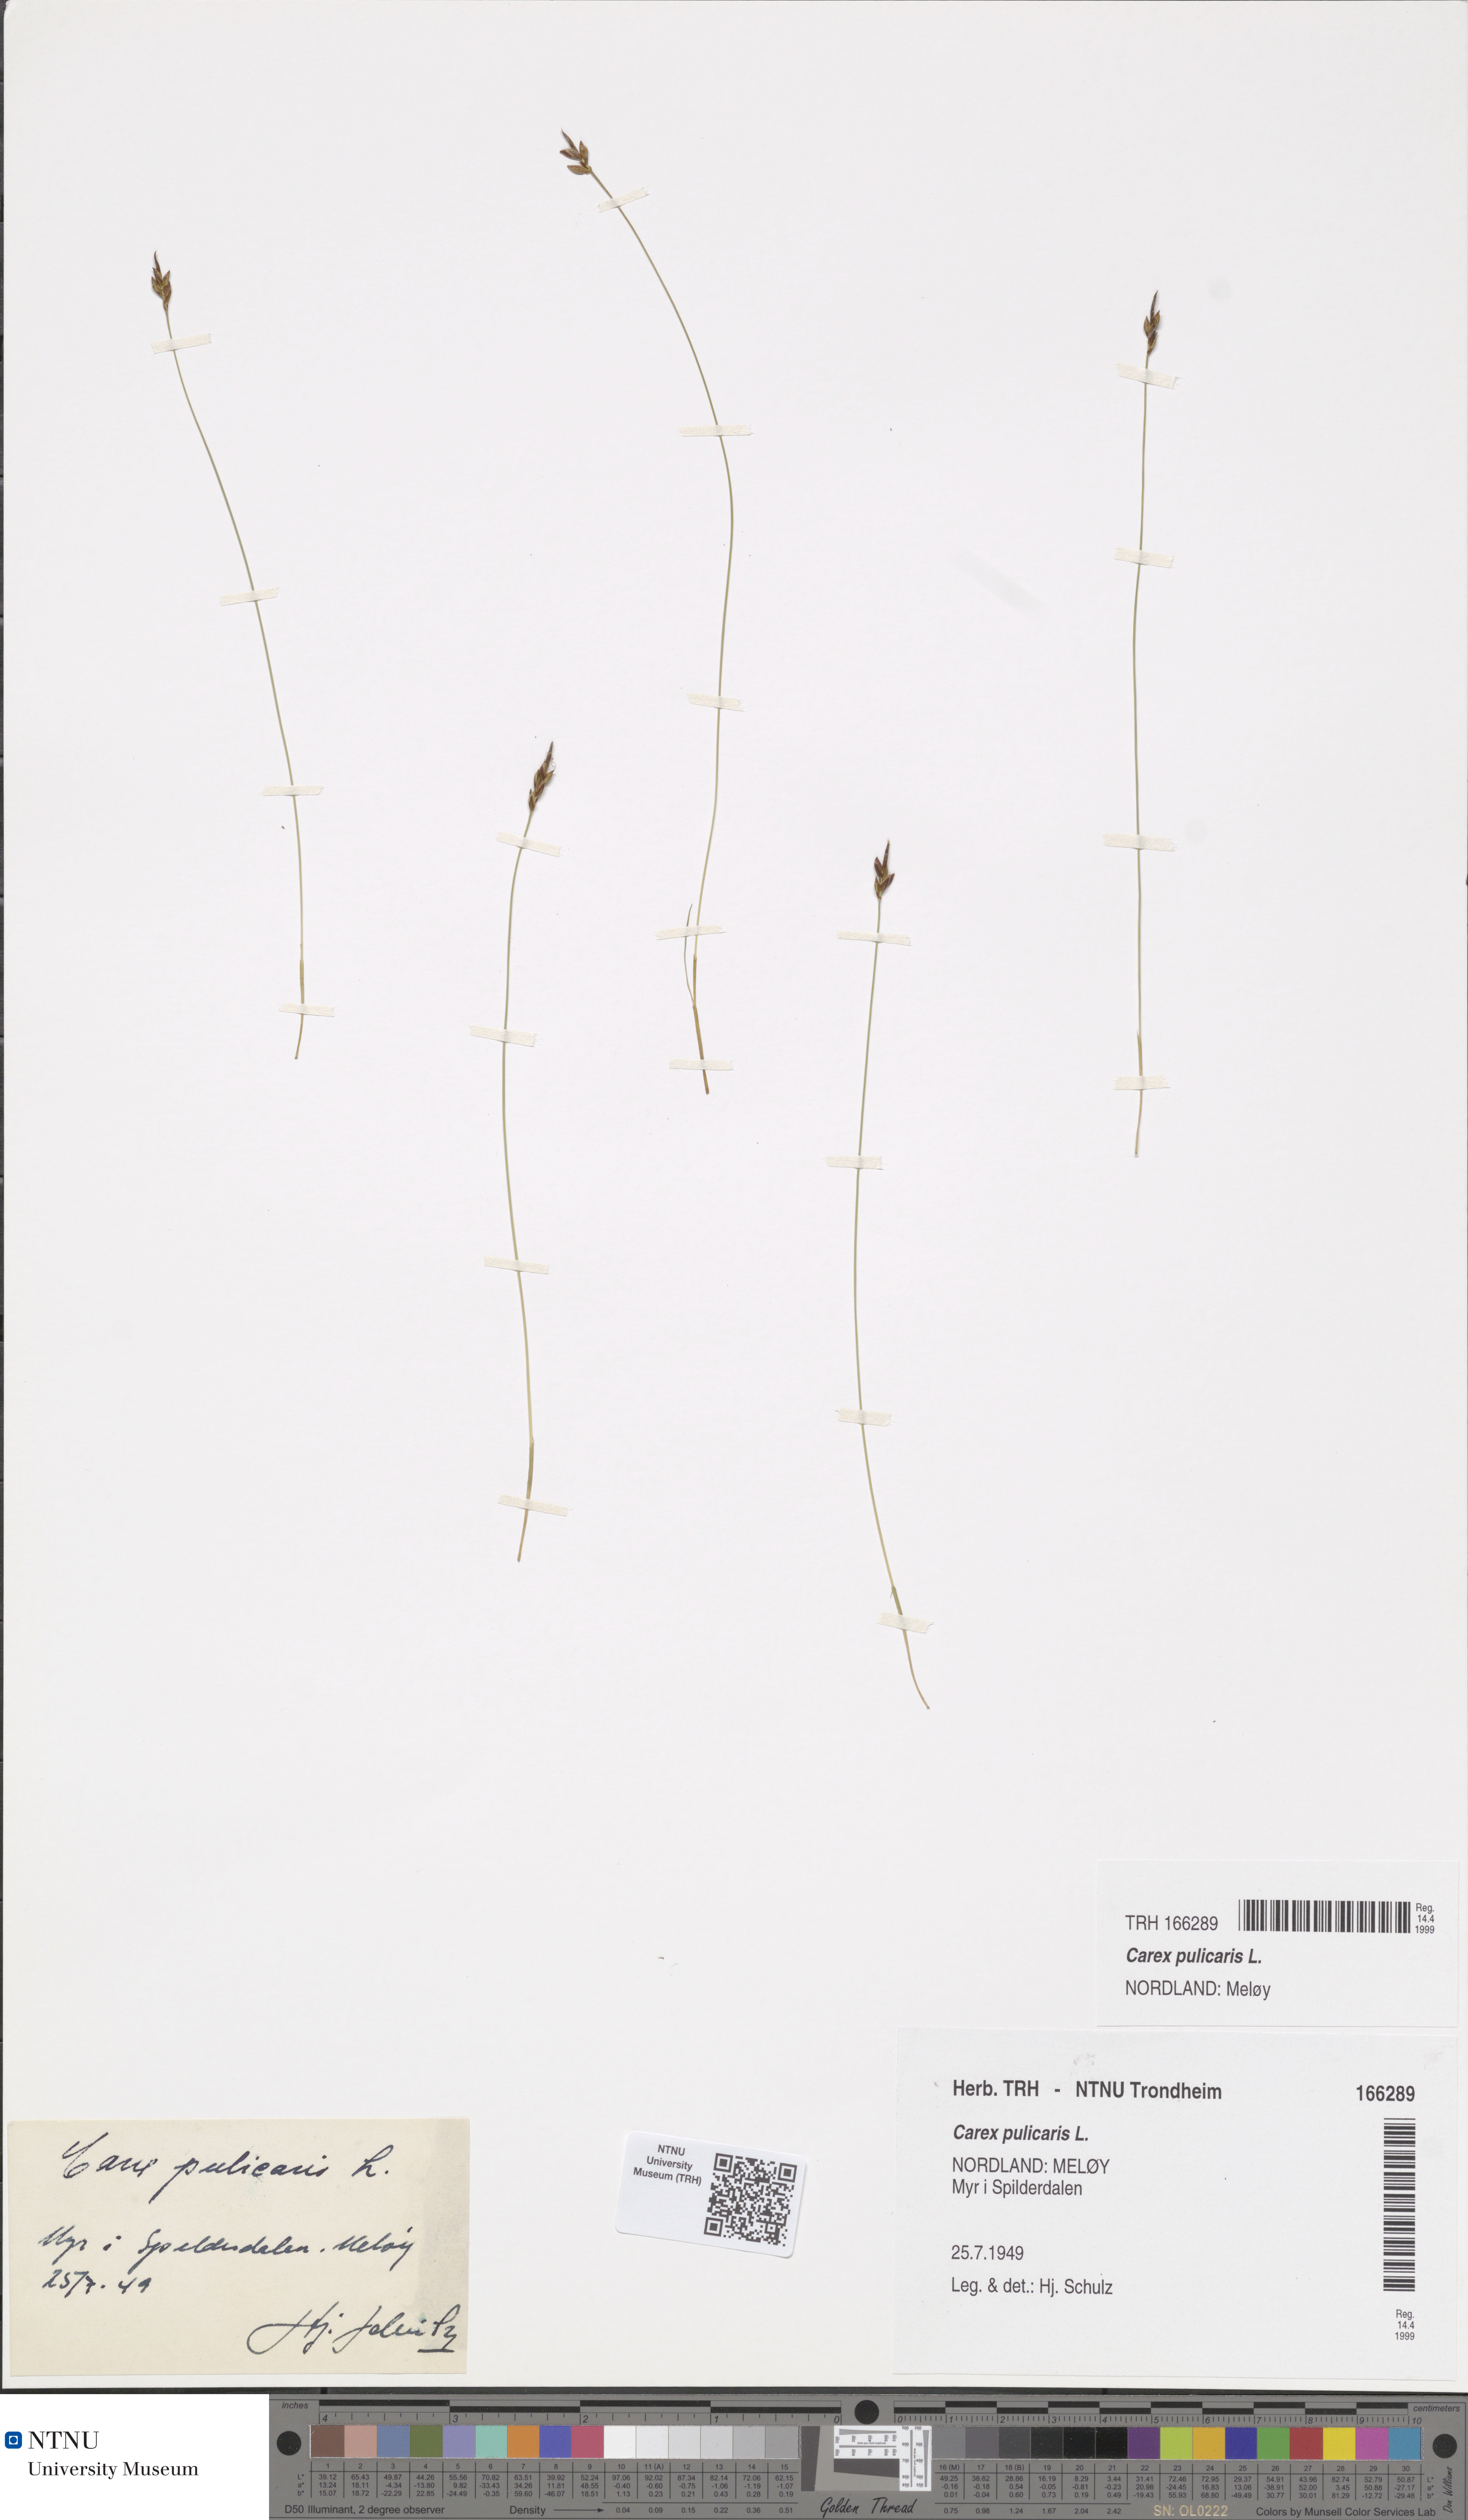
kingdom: Plantae
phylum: Tracheophyta
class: Liliopsida
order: Poales
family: Cyperaceae
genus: Carex
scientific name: Carex pulicaris
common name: Flea sedge
